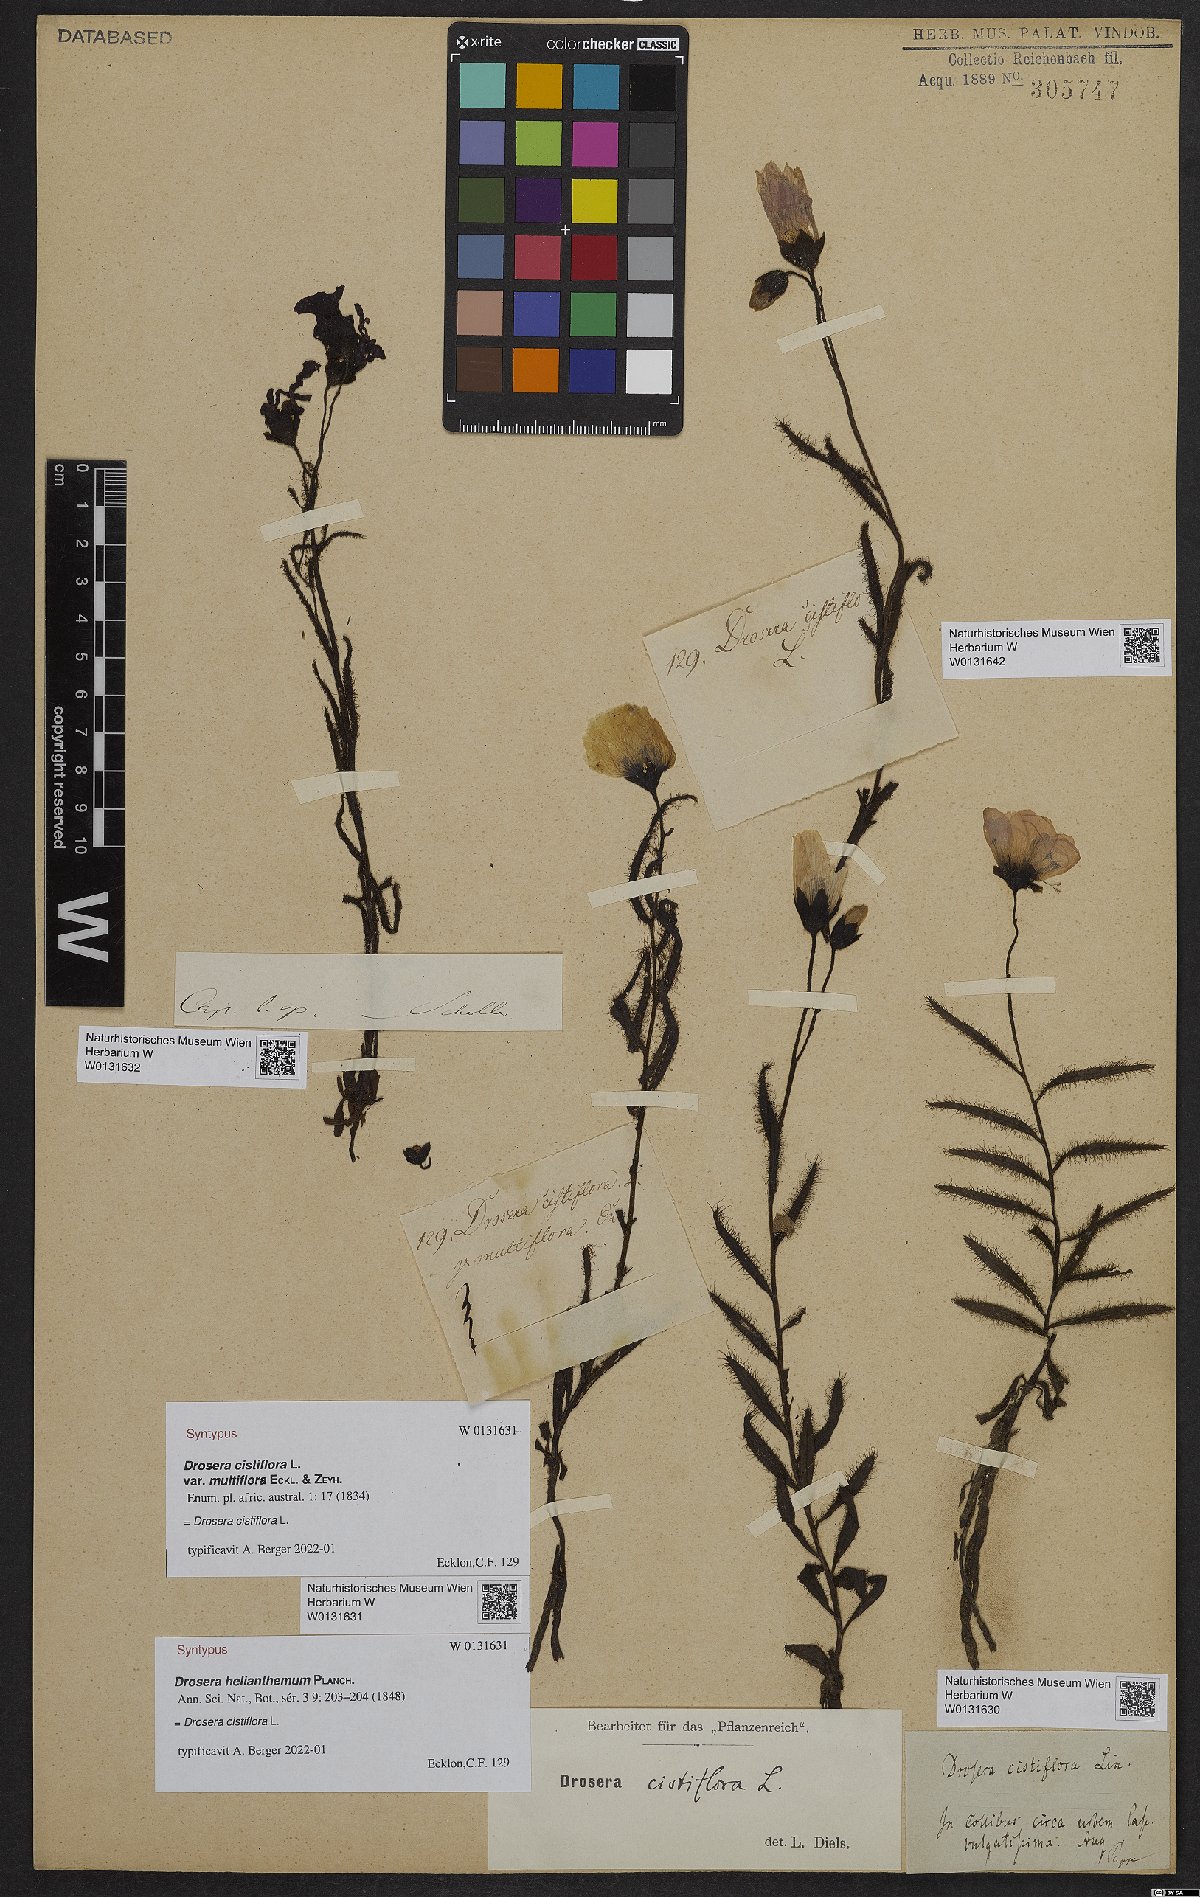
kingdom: Plantae
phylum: Tracheophyta
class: Magnoliopsida
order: Caryophyllales
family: Droseraceae
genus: Drosera
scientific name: Drosera cistiflora
